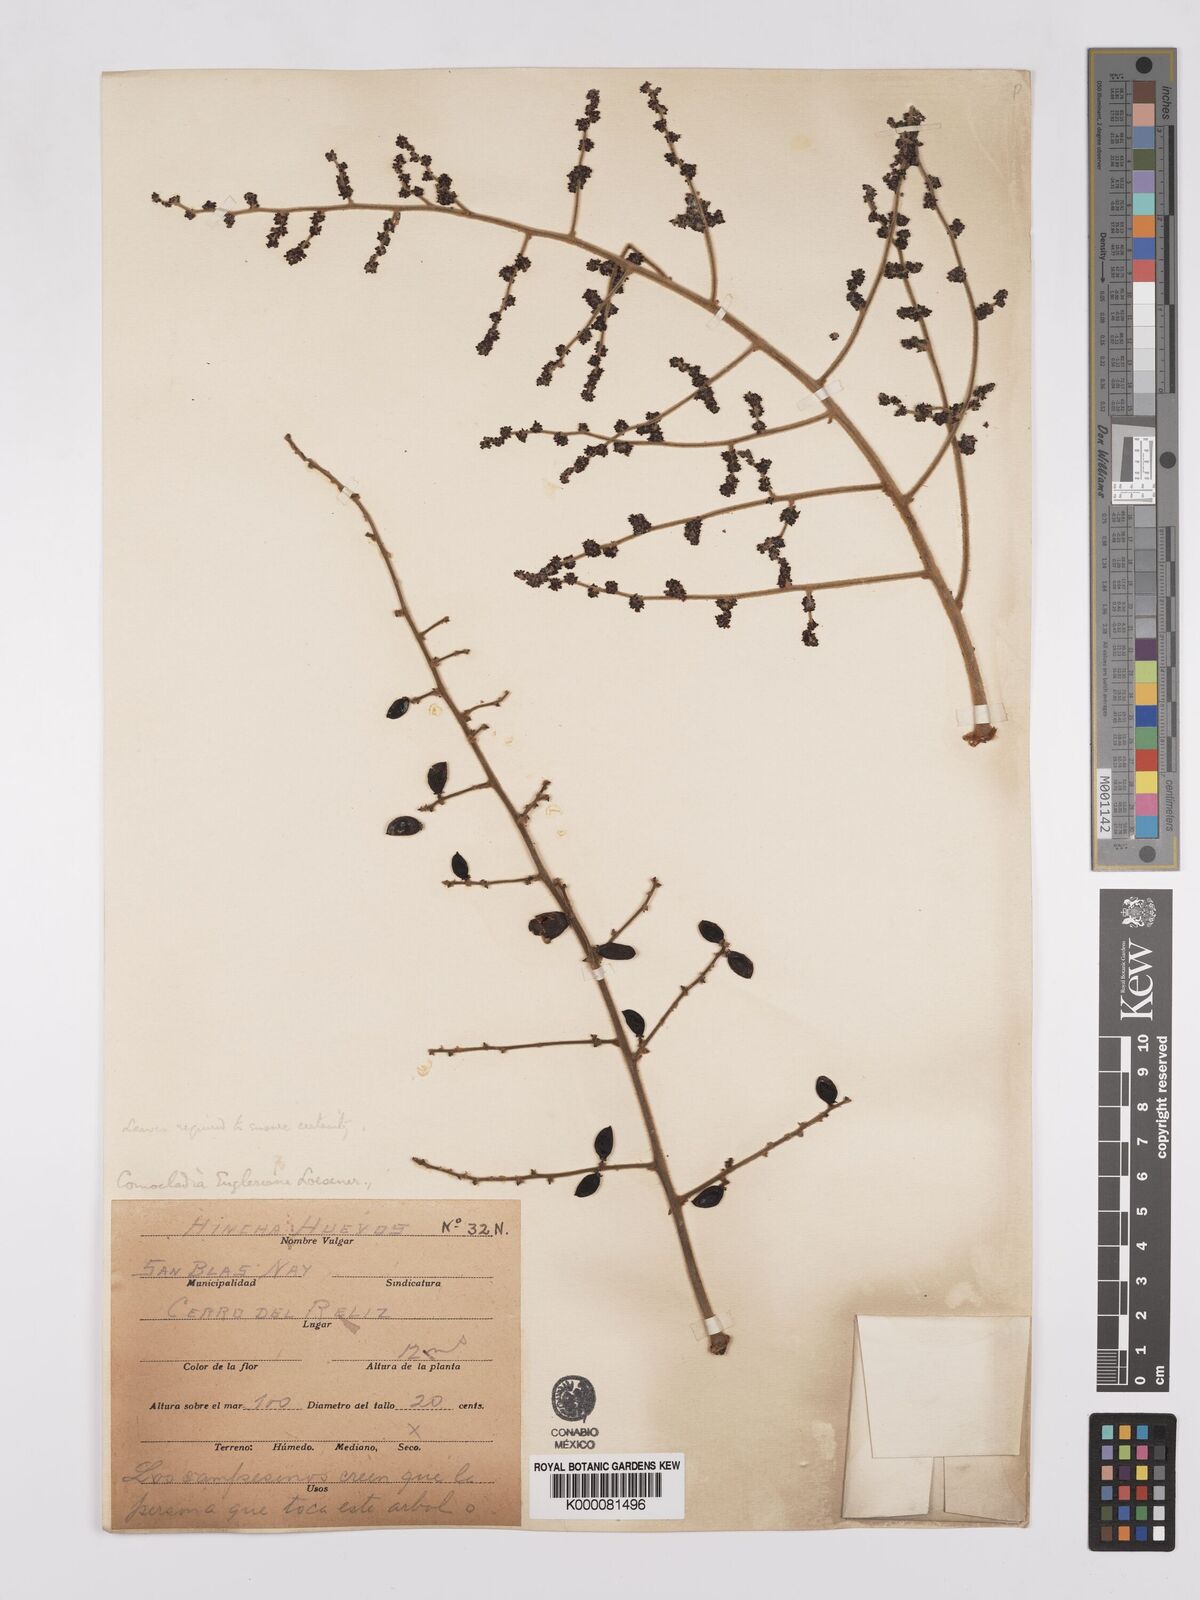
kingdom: Plantae
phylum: Tracheophyta
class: Magnoliopsida
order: Sapindales
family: Anacardiaceae
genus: Comocladia
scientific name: Comocladia
